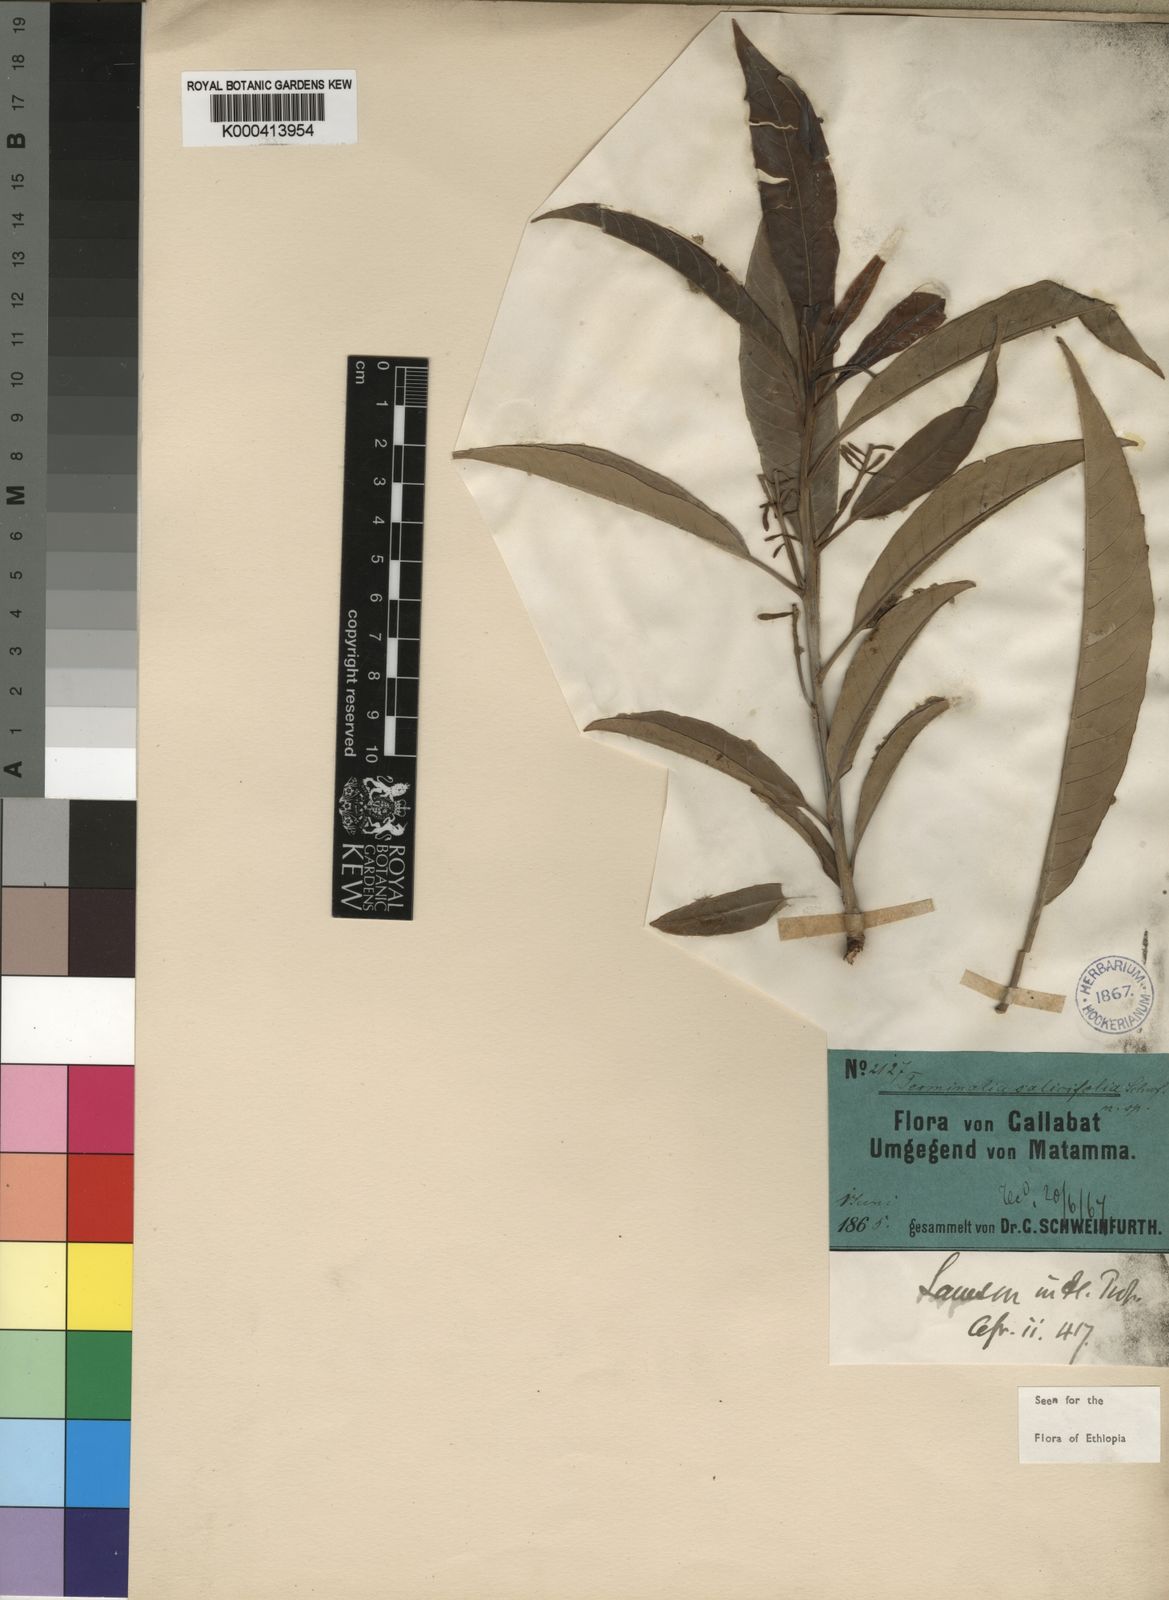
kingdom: Plantae
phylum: Tracheophyta
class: Magnoliopsida
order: Myrtales
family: Combretaceae
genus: Terminalia
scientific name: Terminalia
